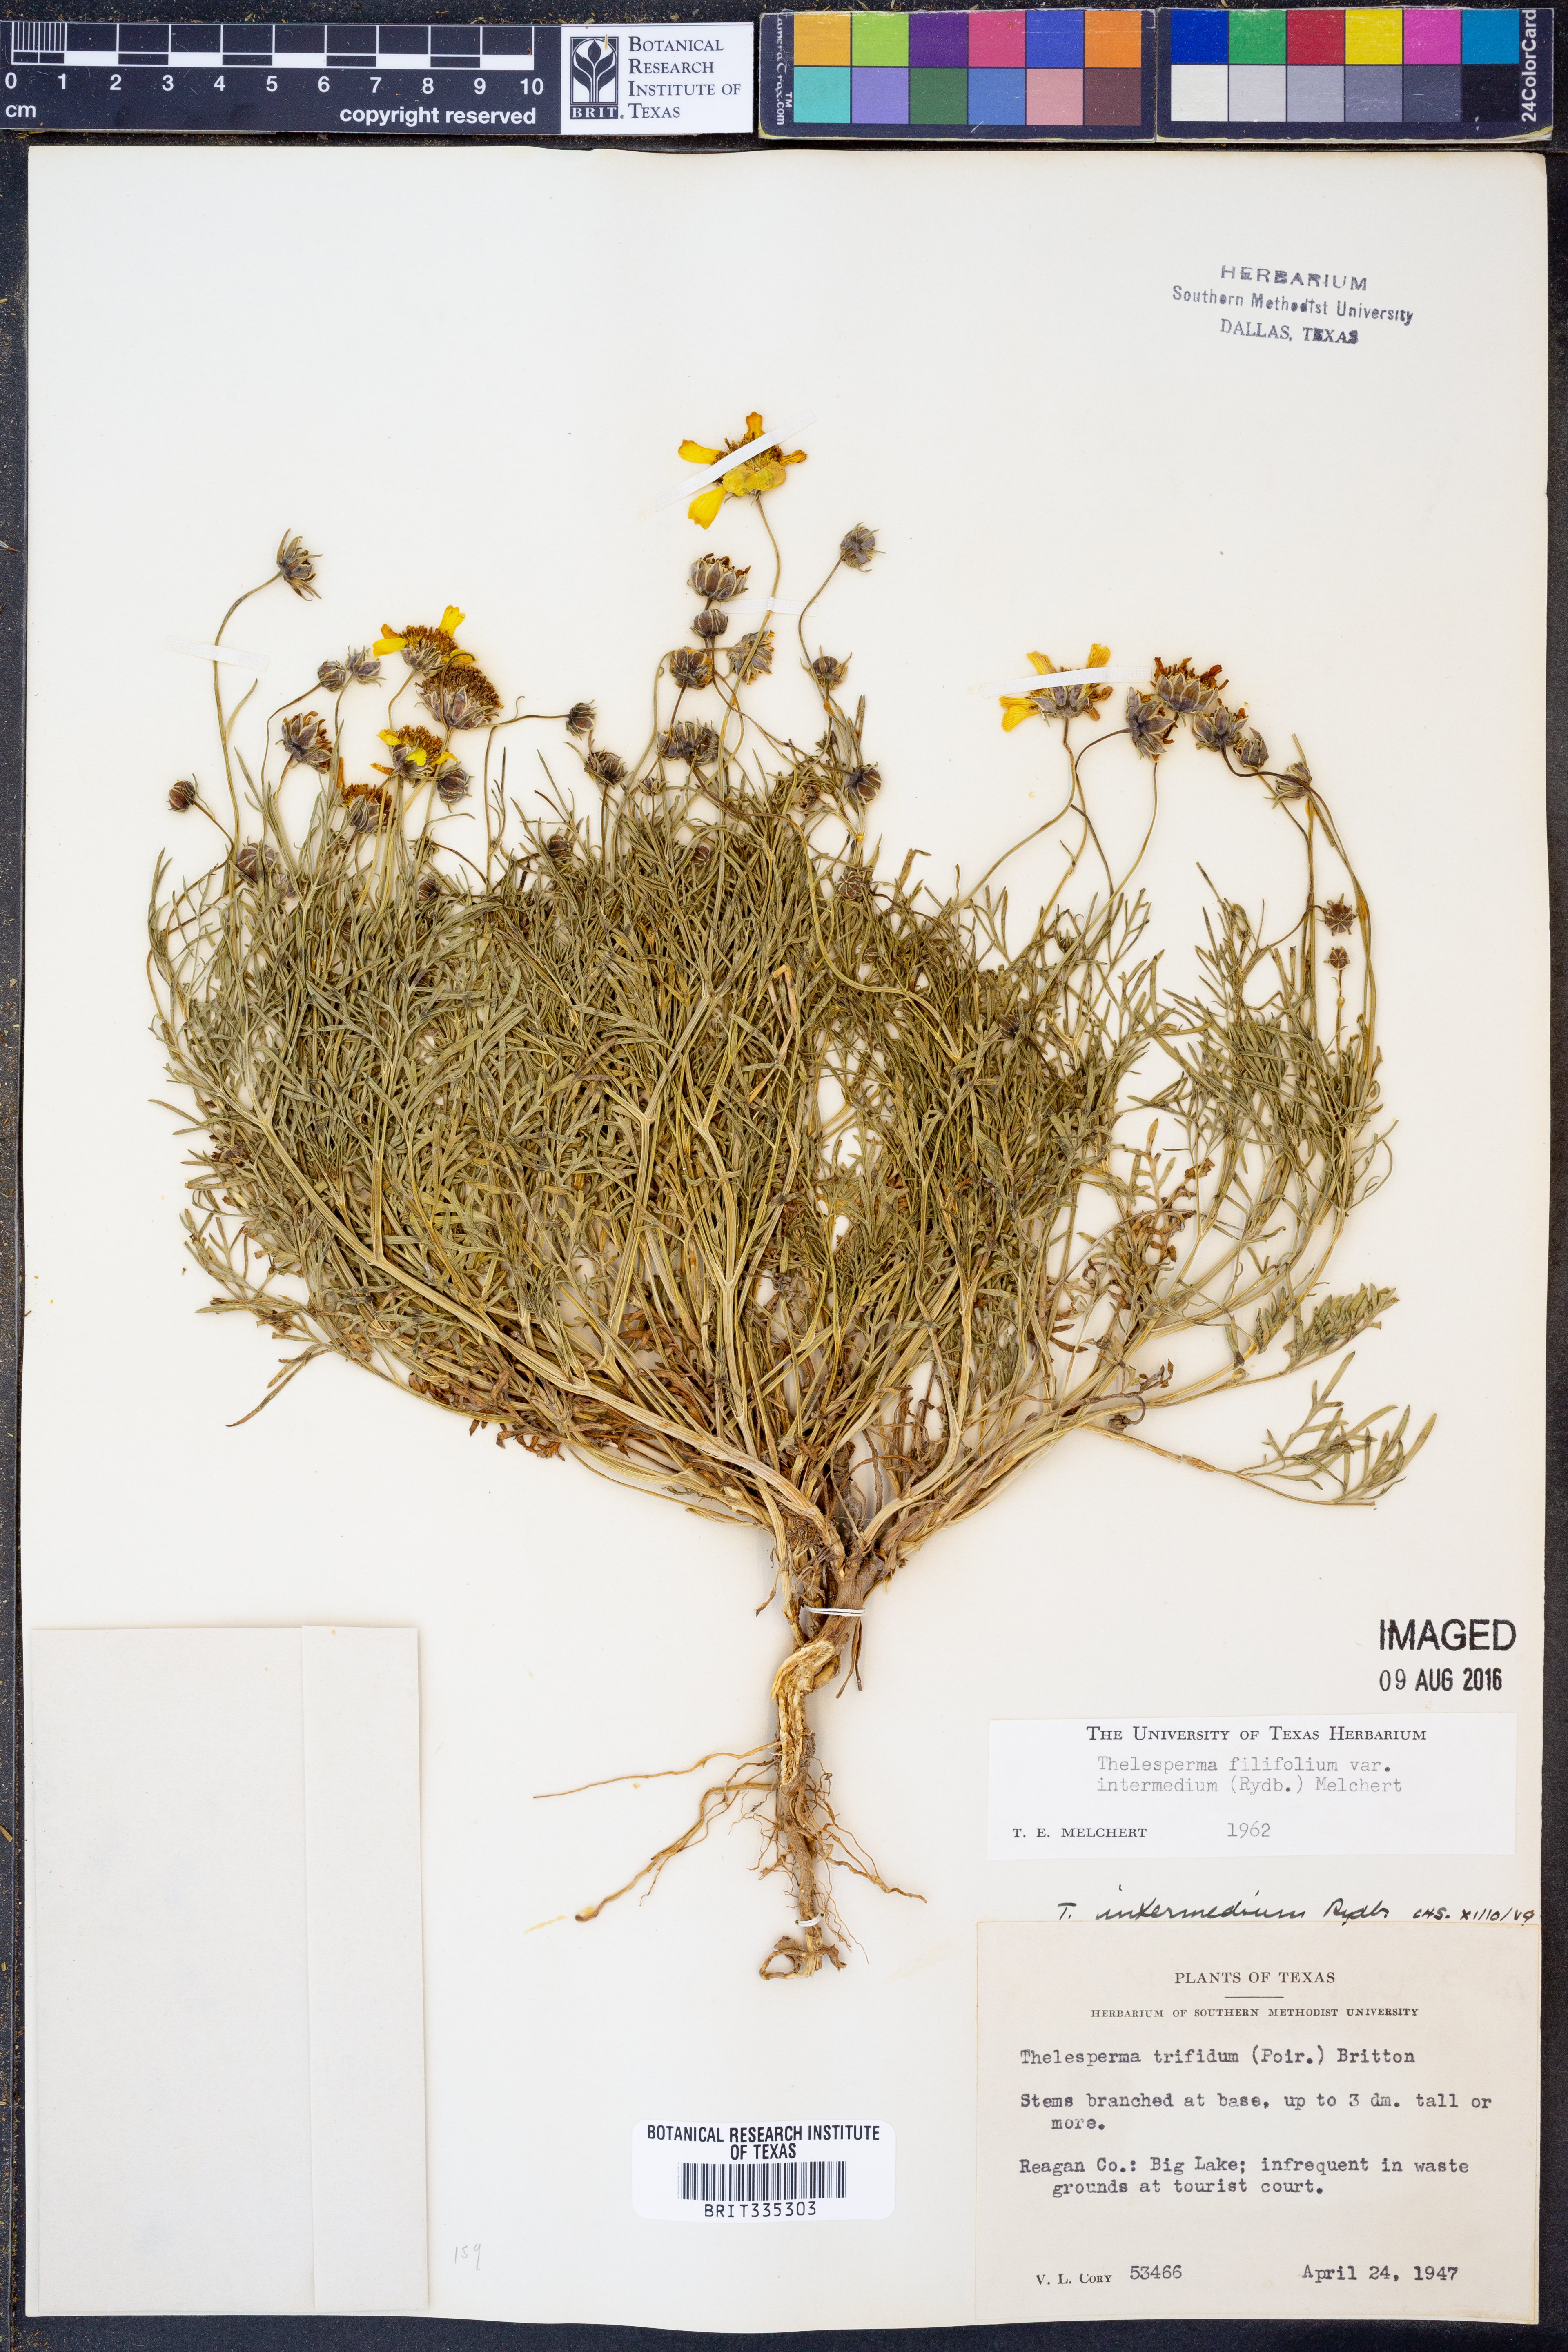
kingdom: Plantae
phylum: Tracheophyta
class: Magnoliopsida
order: Asterales
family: Asteraceae
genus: Thelesperma
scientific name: Thelesperma filifolium
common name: Stiff greenthread
